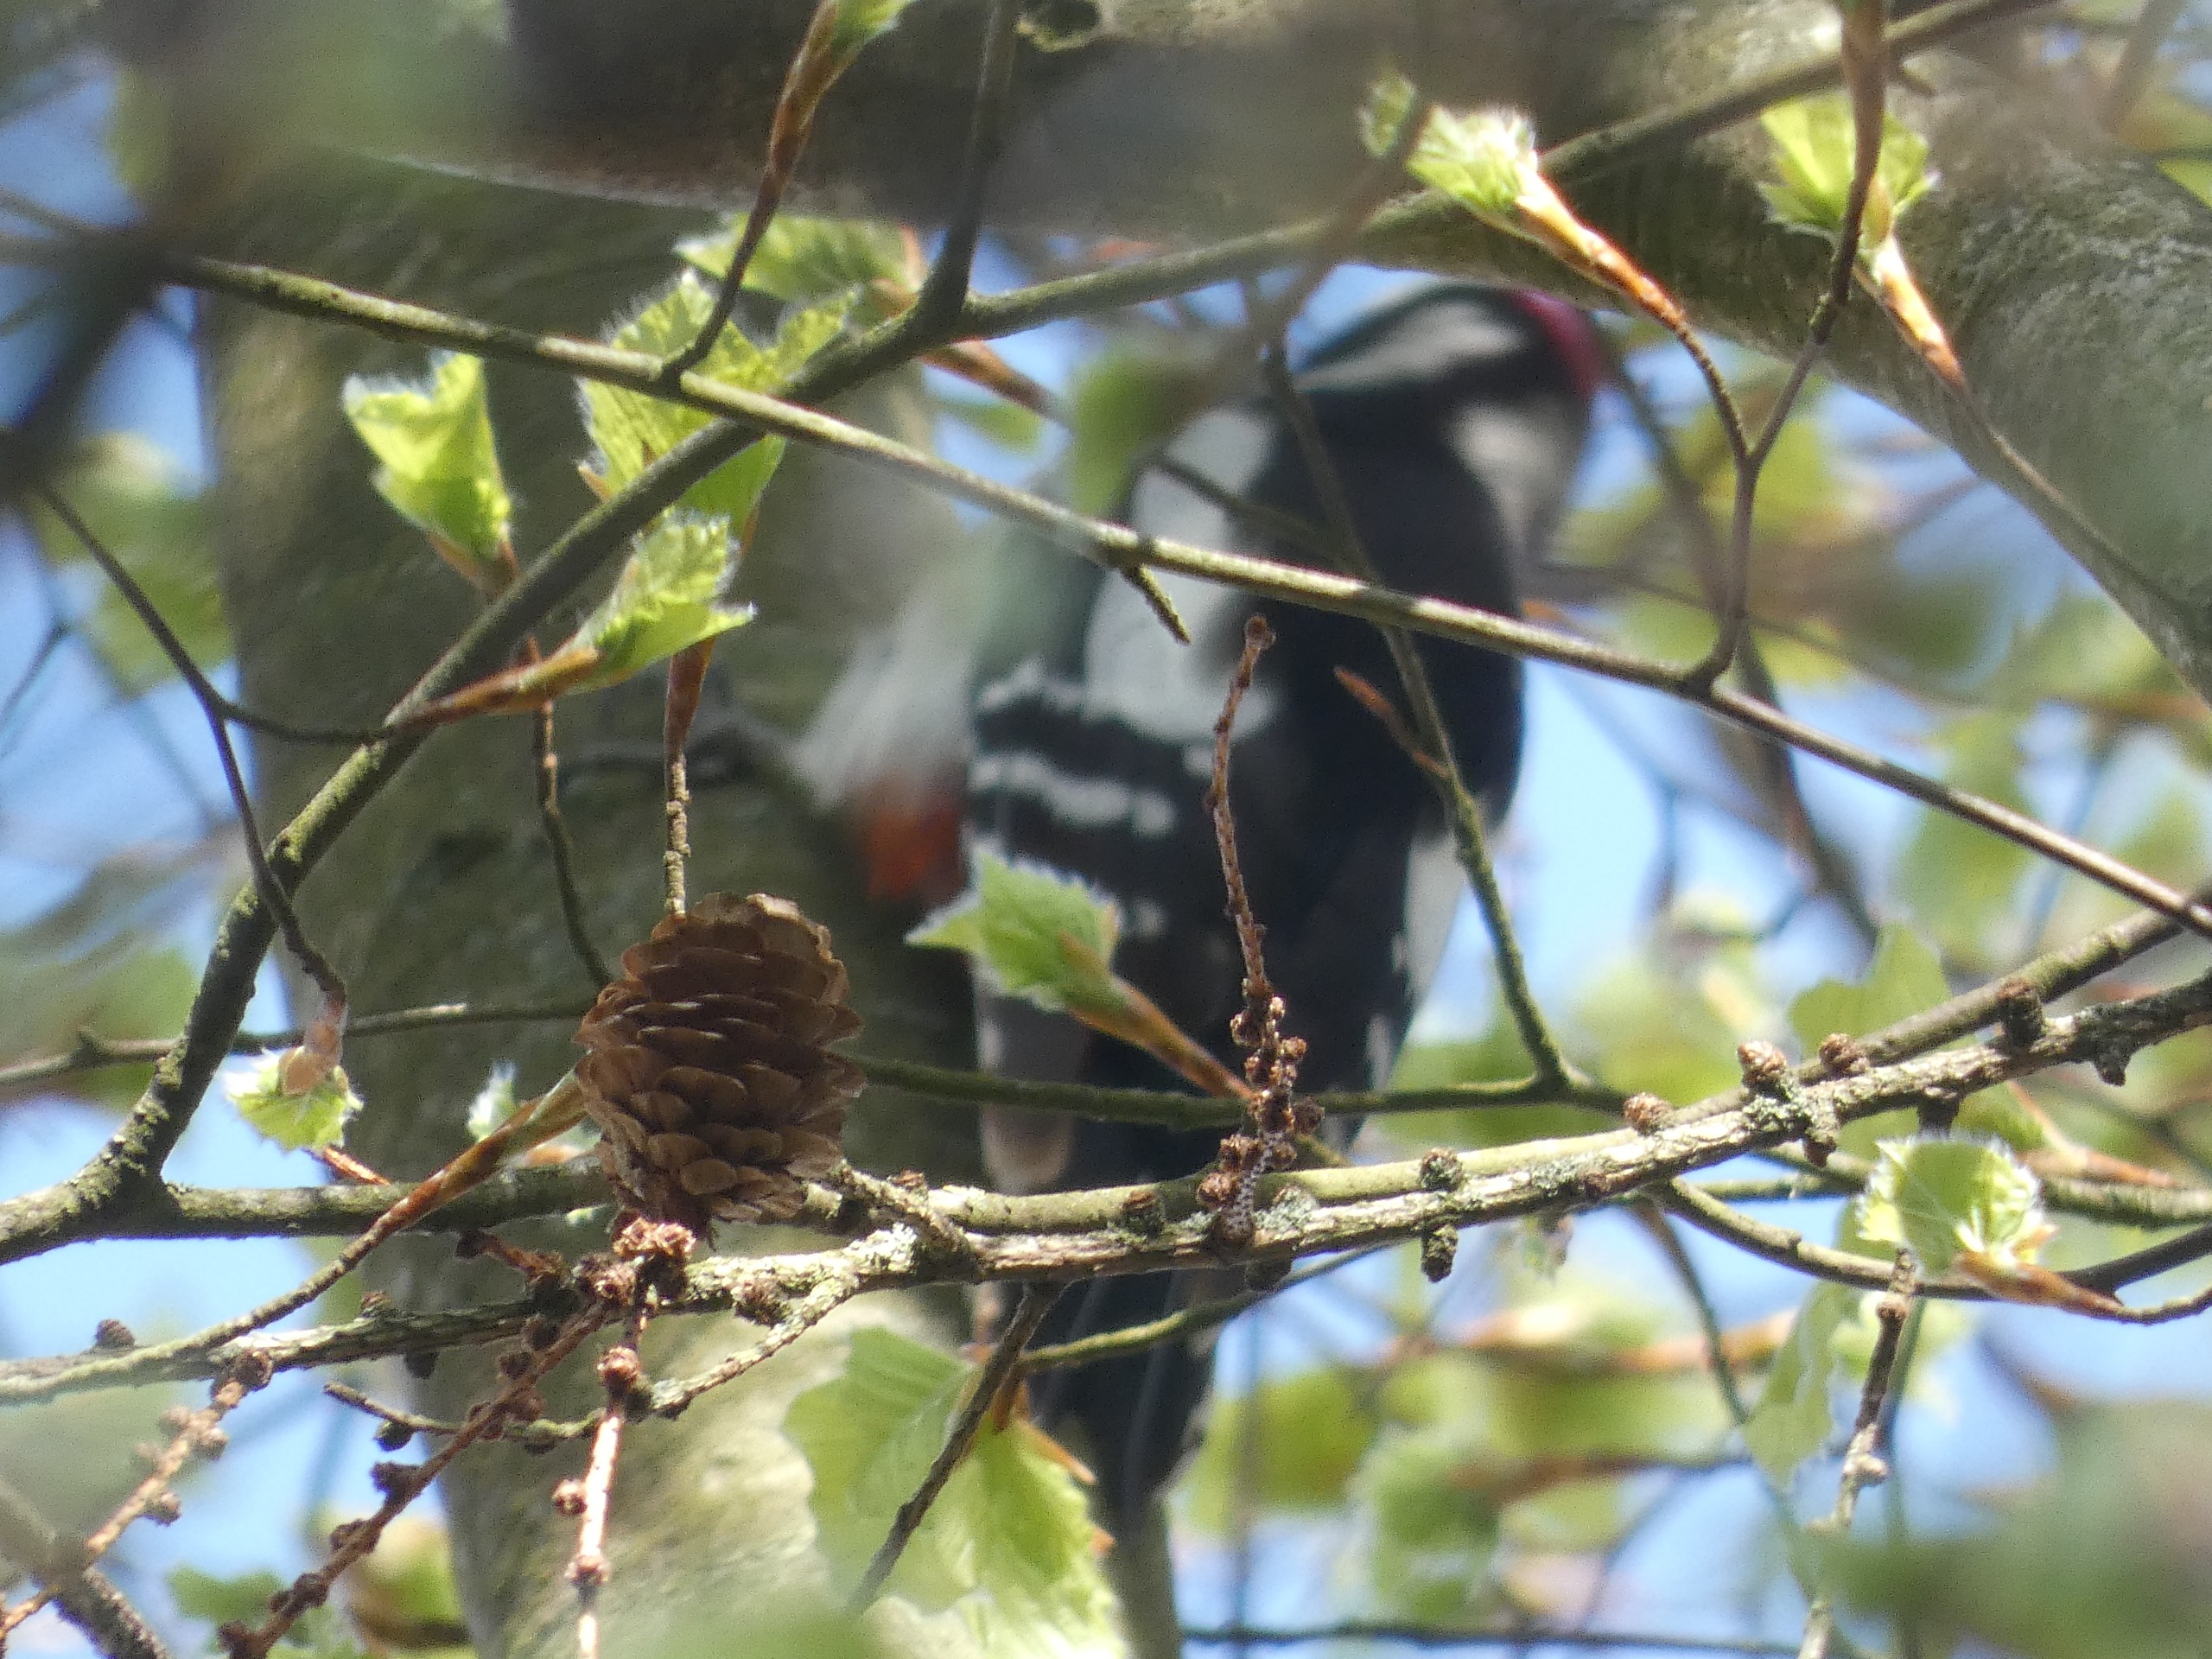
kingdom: Animalia
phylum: Chordata
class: Aves
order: Piciformes
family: Picidae
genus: Dendrocopos
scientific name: Dendrocopos major
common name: Stor flagspætte
